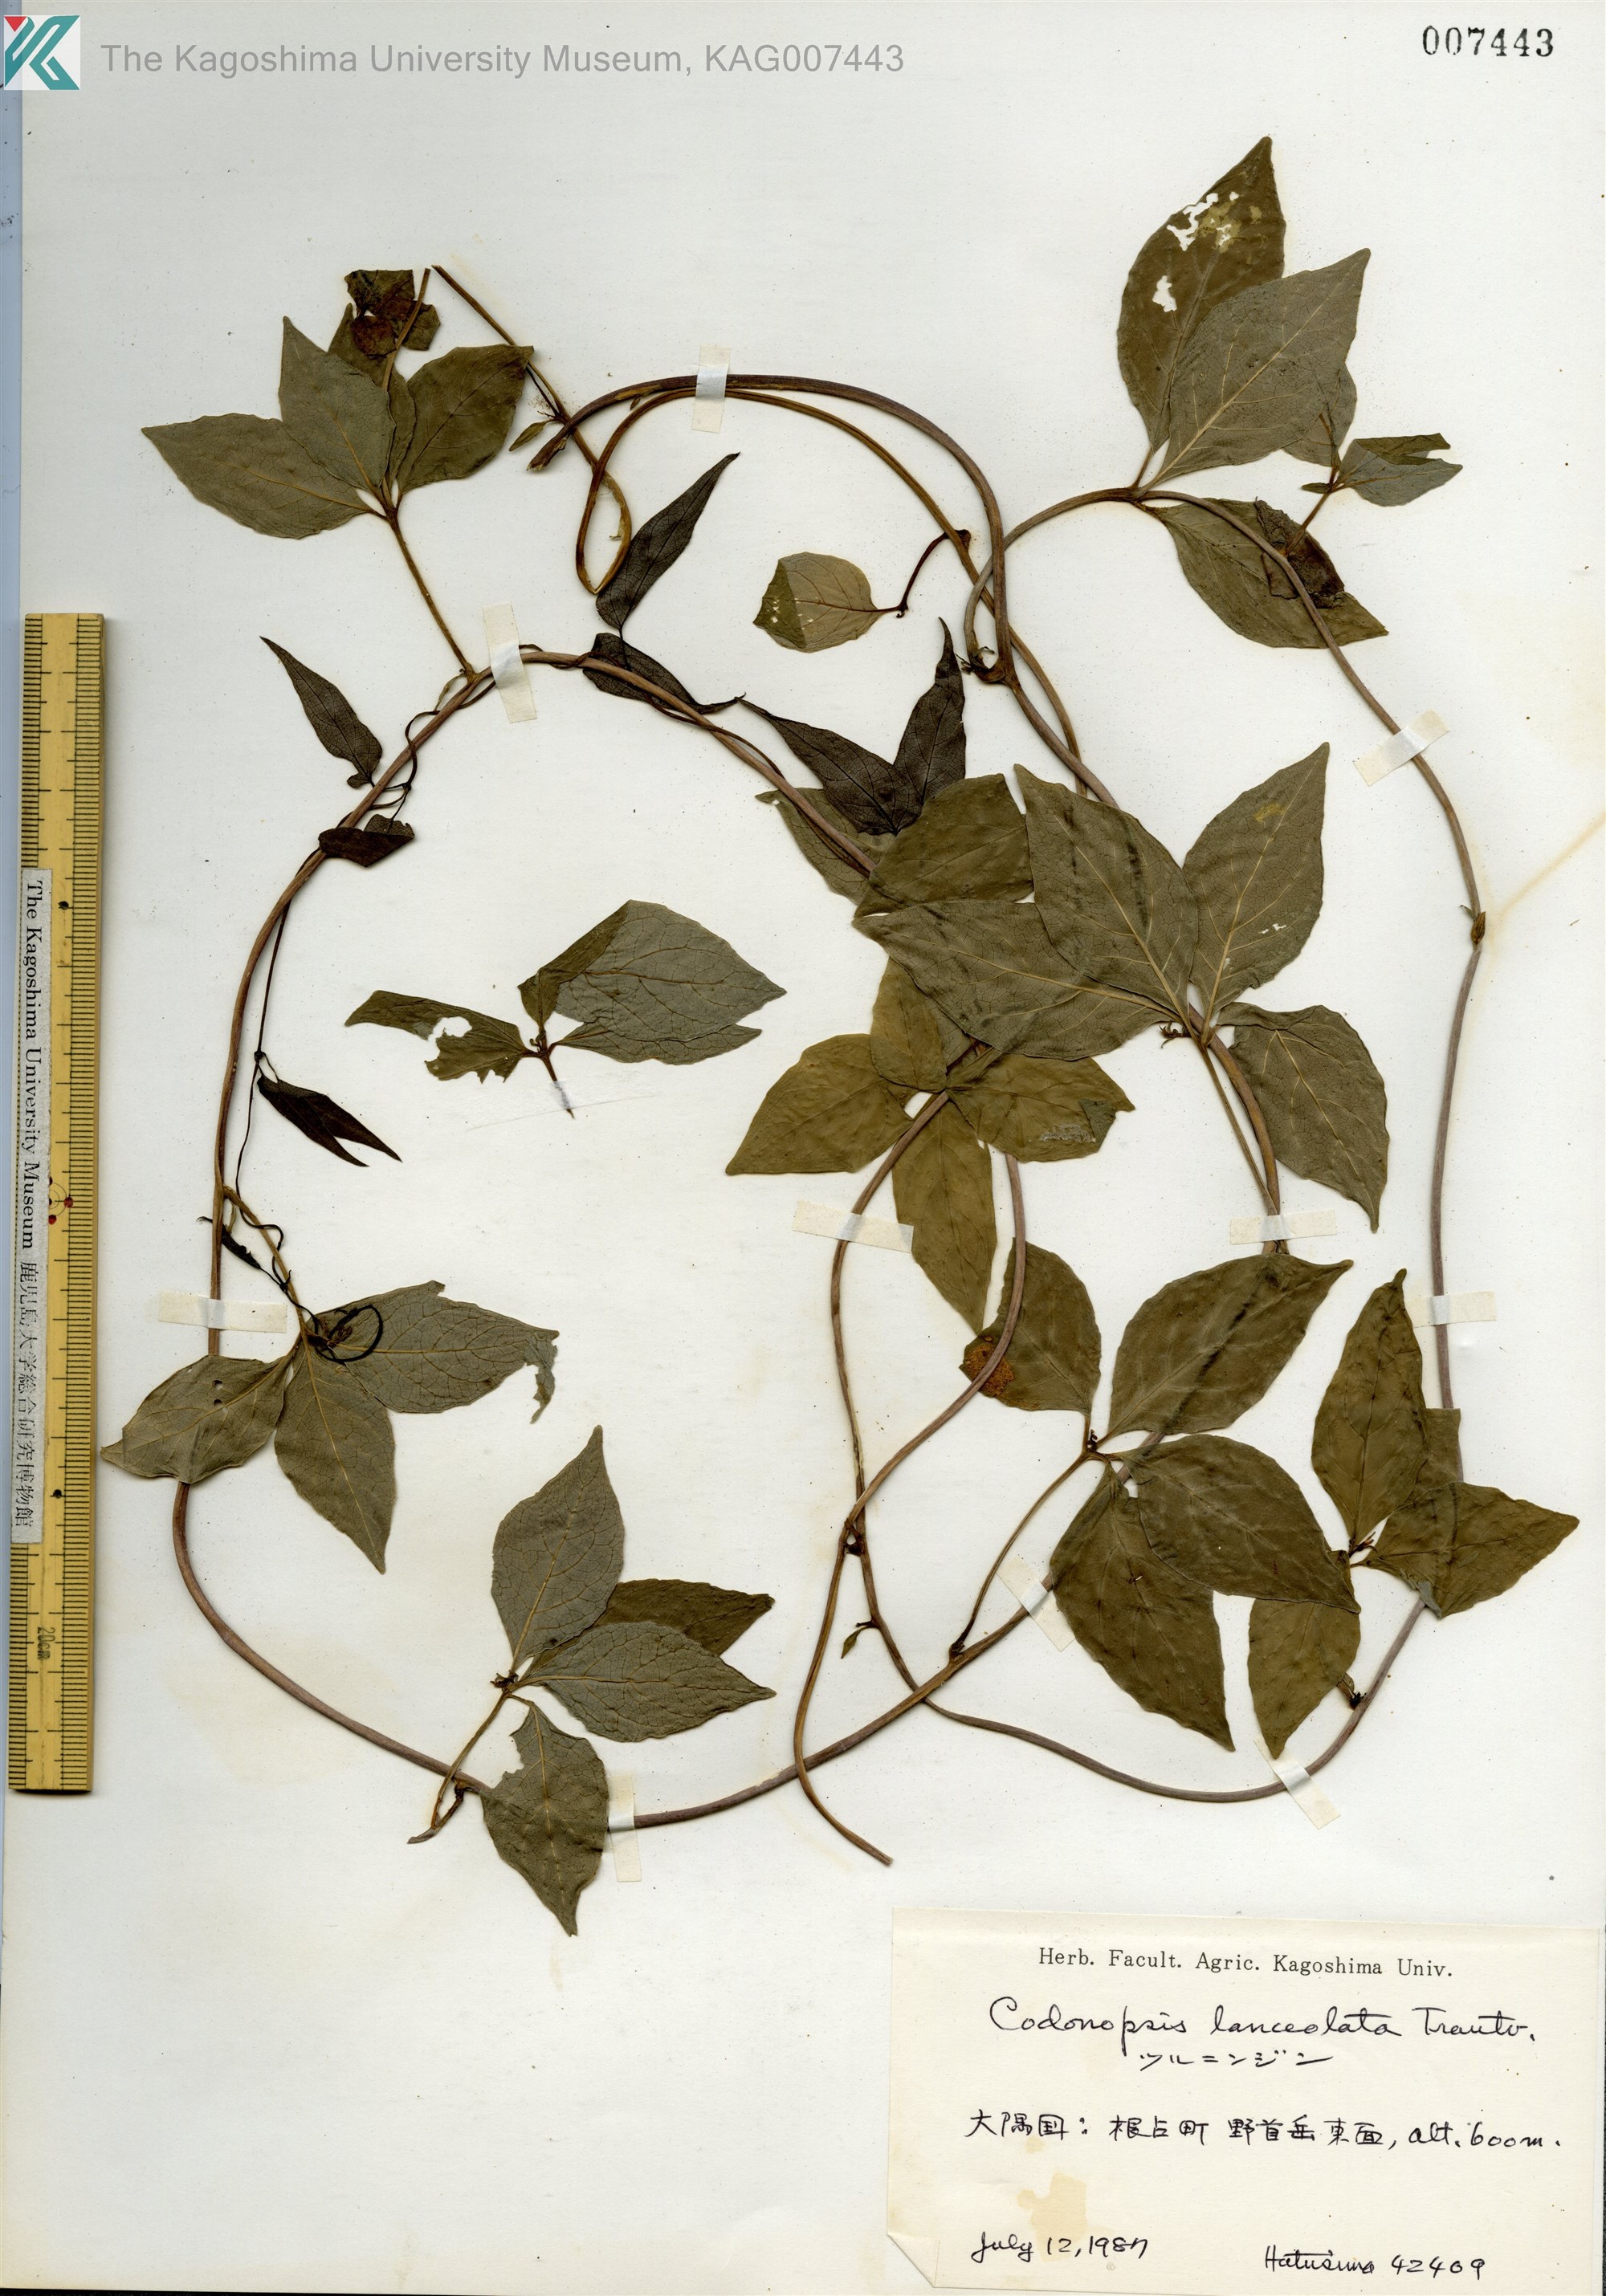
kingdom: Plantae
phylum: Tracheophyta
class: Magnoliopsida
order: Asterales
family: Campanulaceae
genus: Codonopsis
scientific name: Codonopsis lanceolata
